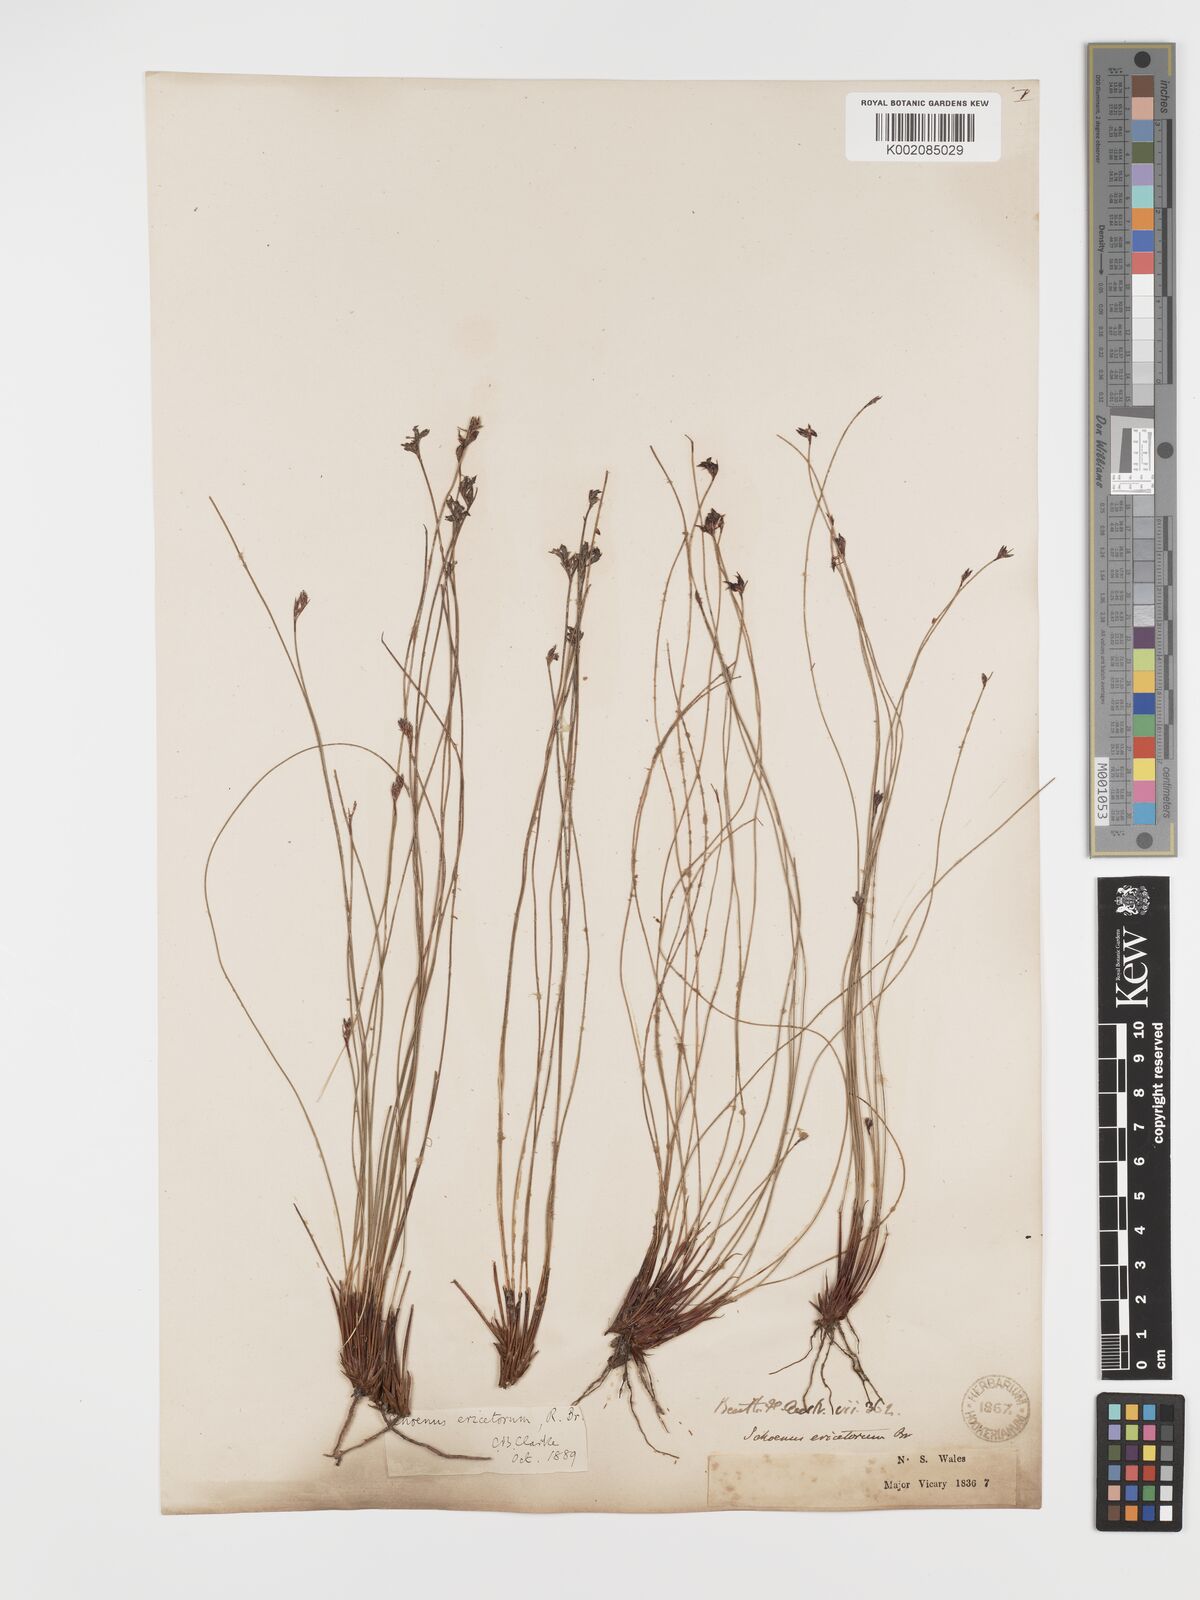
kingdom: Plantae
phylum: Tracheophyta
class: Liliopsida
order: Poales
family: Cyperaceae
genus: Schoenus
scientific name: Schoenus ericetorum
